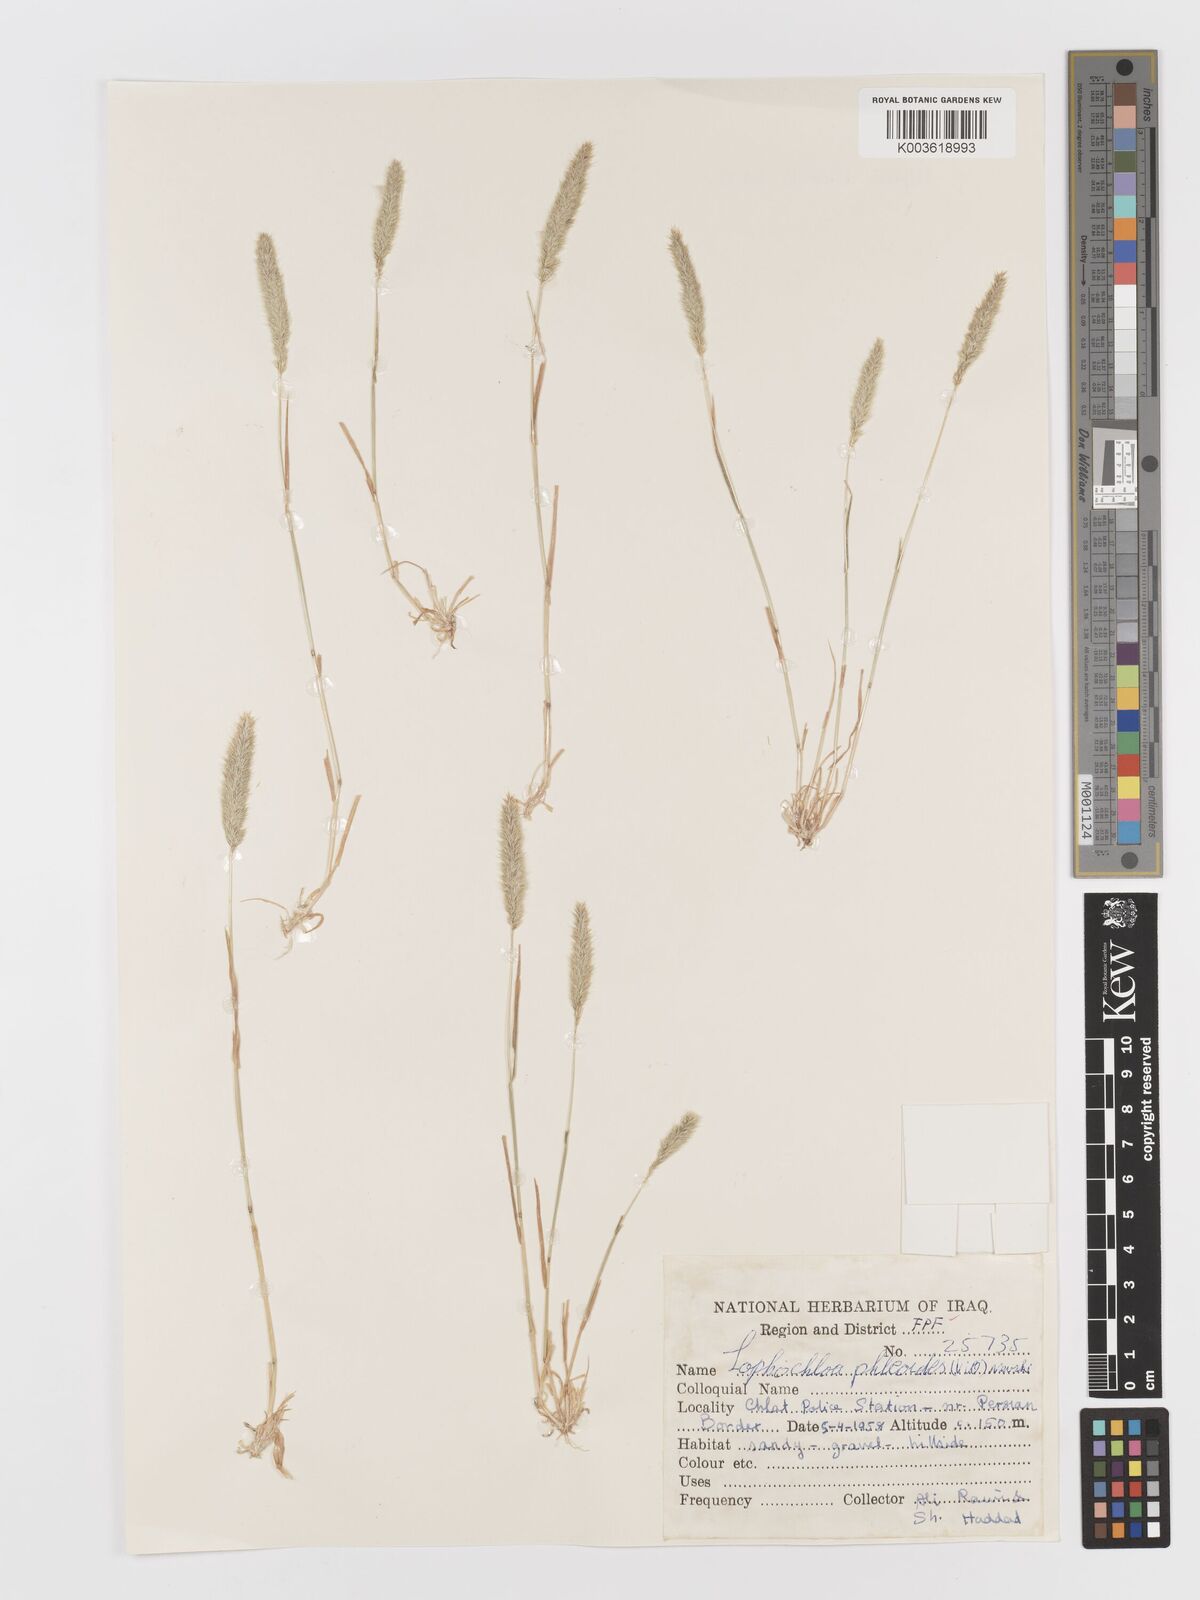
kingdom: Plantae
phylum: Tracheophyta
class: Liliopsida
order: Poales
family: Poaceae
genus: Rostraria
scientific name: Rostraria cristata
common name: Mediterranean hair-grass
